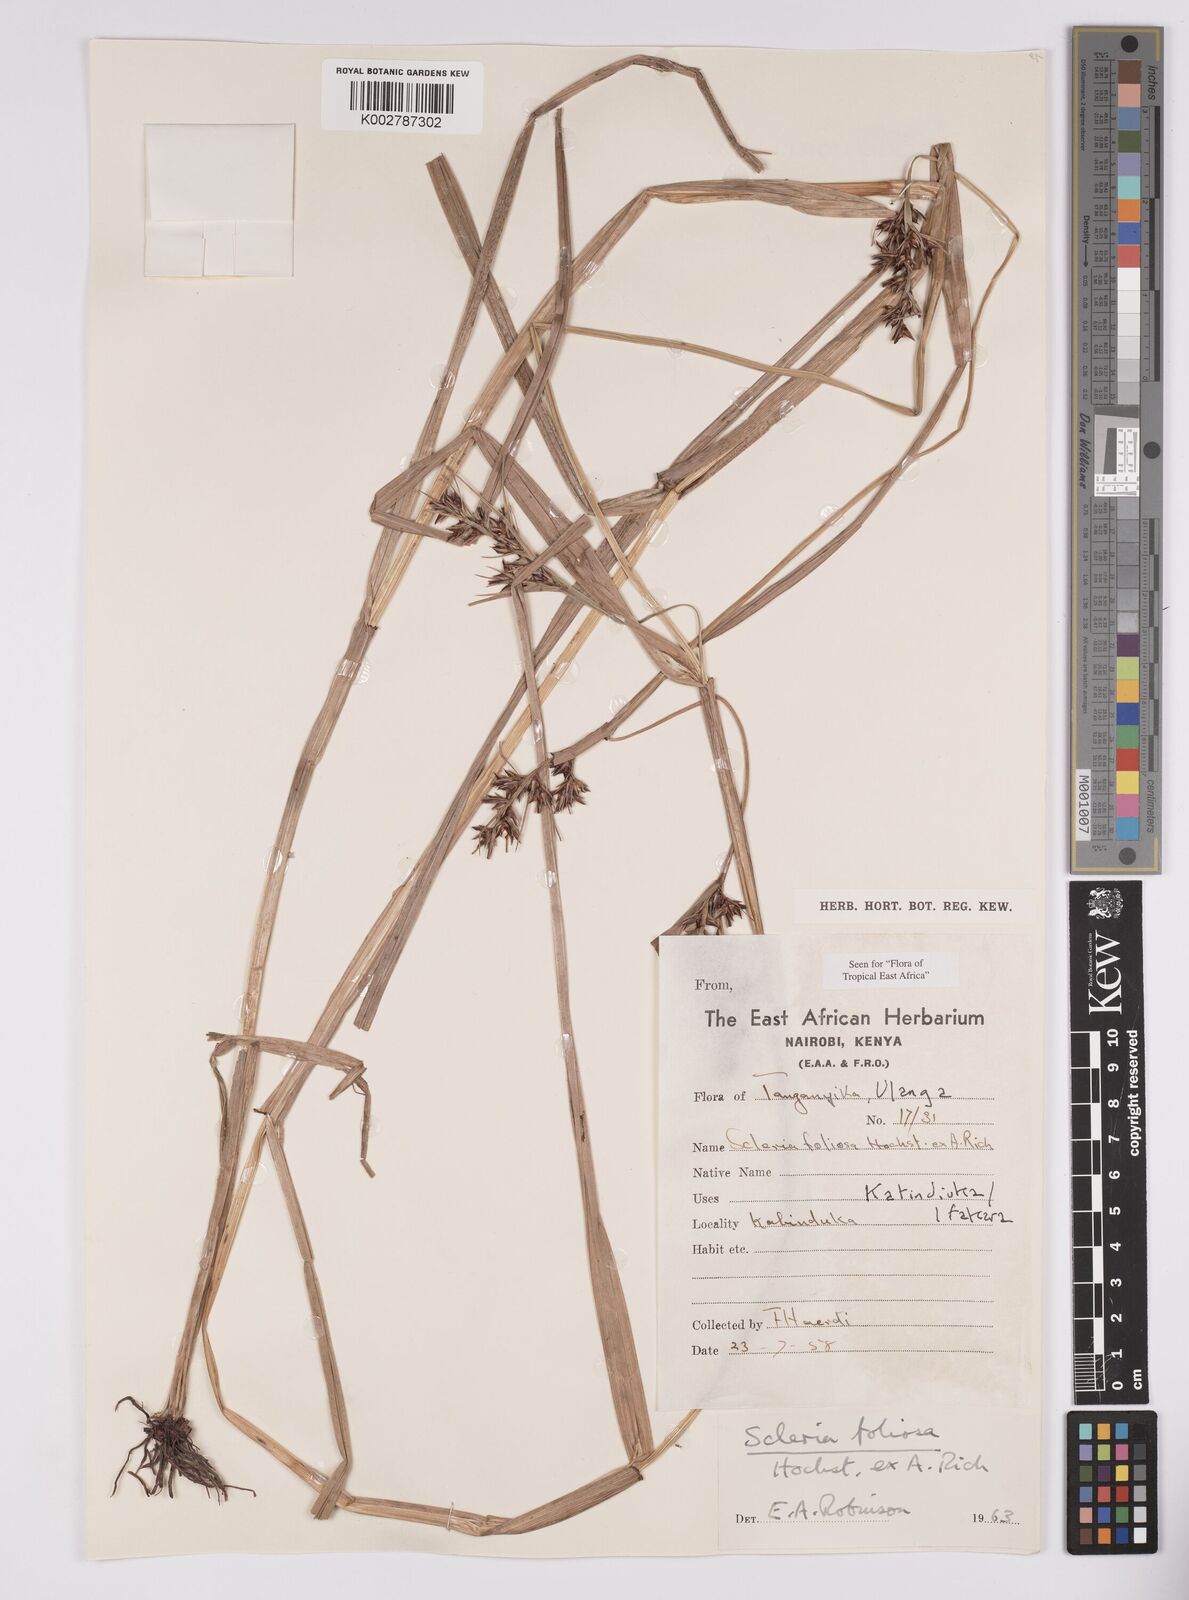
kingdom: Plantae
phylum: Tracheophyta
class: Liliopsida
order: Poales
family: Cyperaceae
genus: Scleria
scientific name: Scleria foliosa
